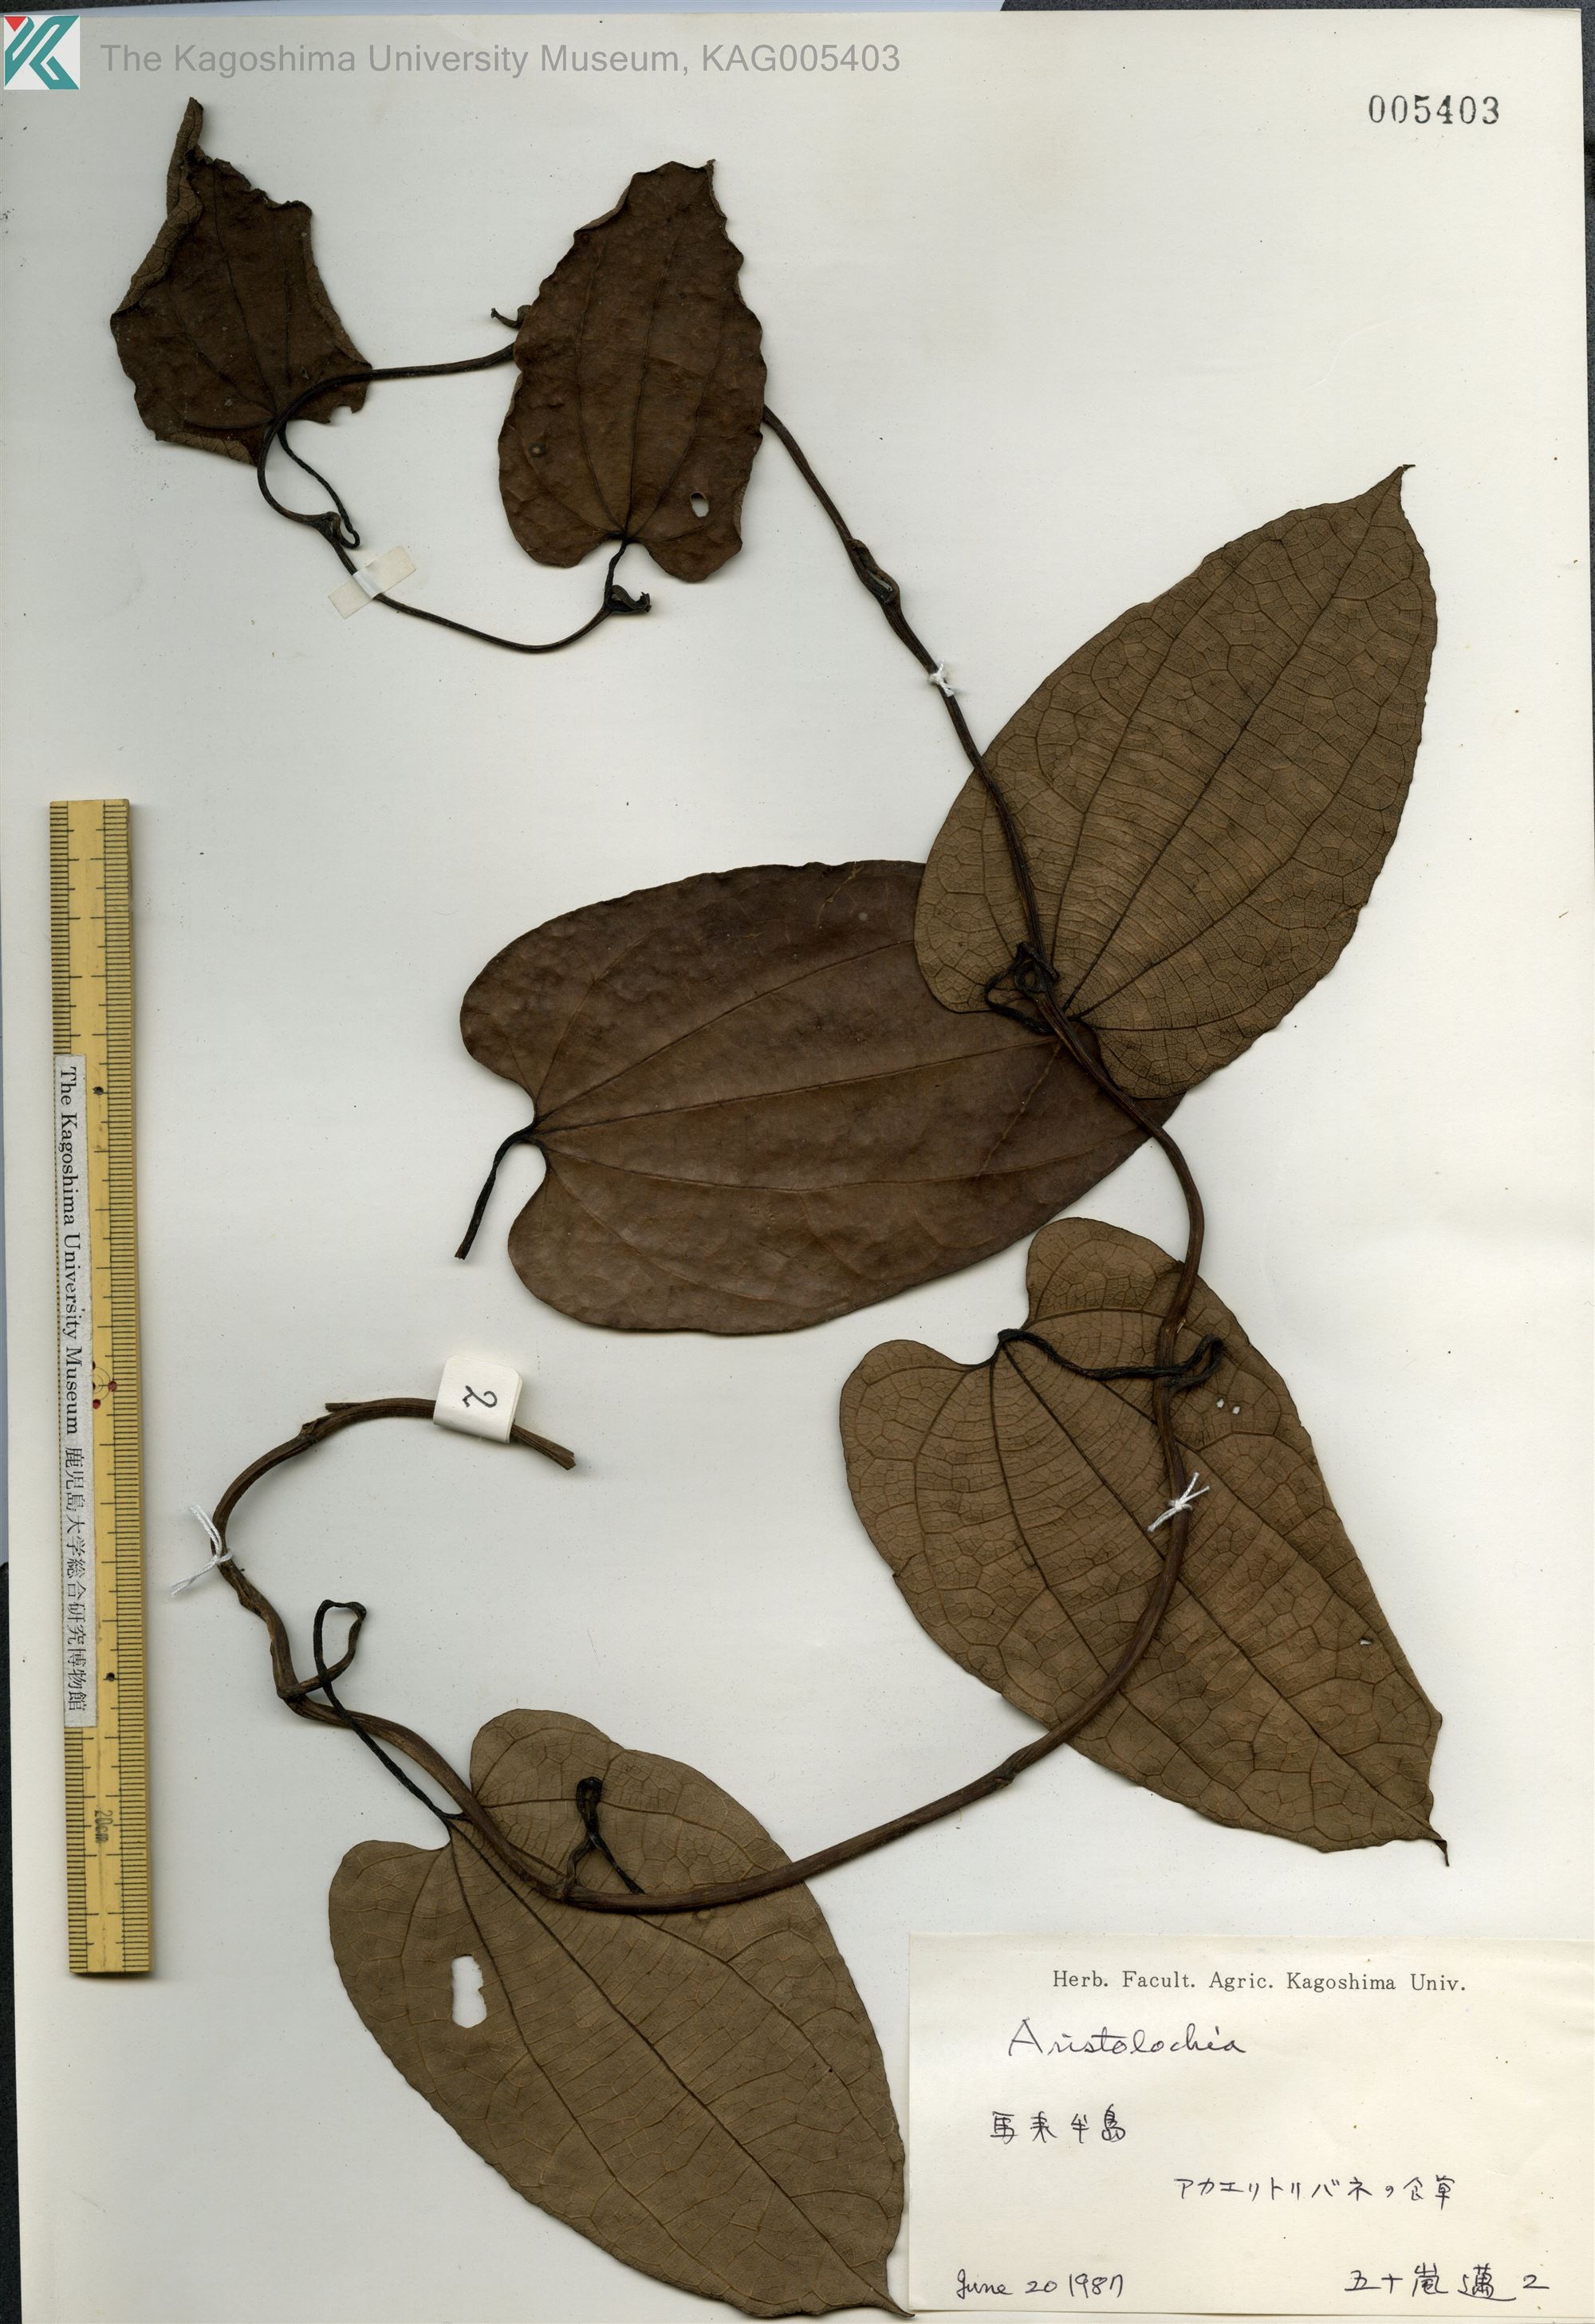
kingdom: Plantae
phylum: Tracheophyta
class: Magnoliopsida
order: Piperales
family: Aristolochiaceae
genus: Aristolochia
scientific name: Aristolochia
